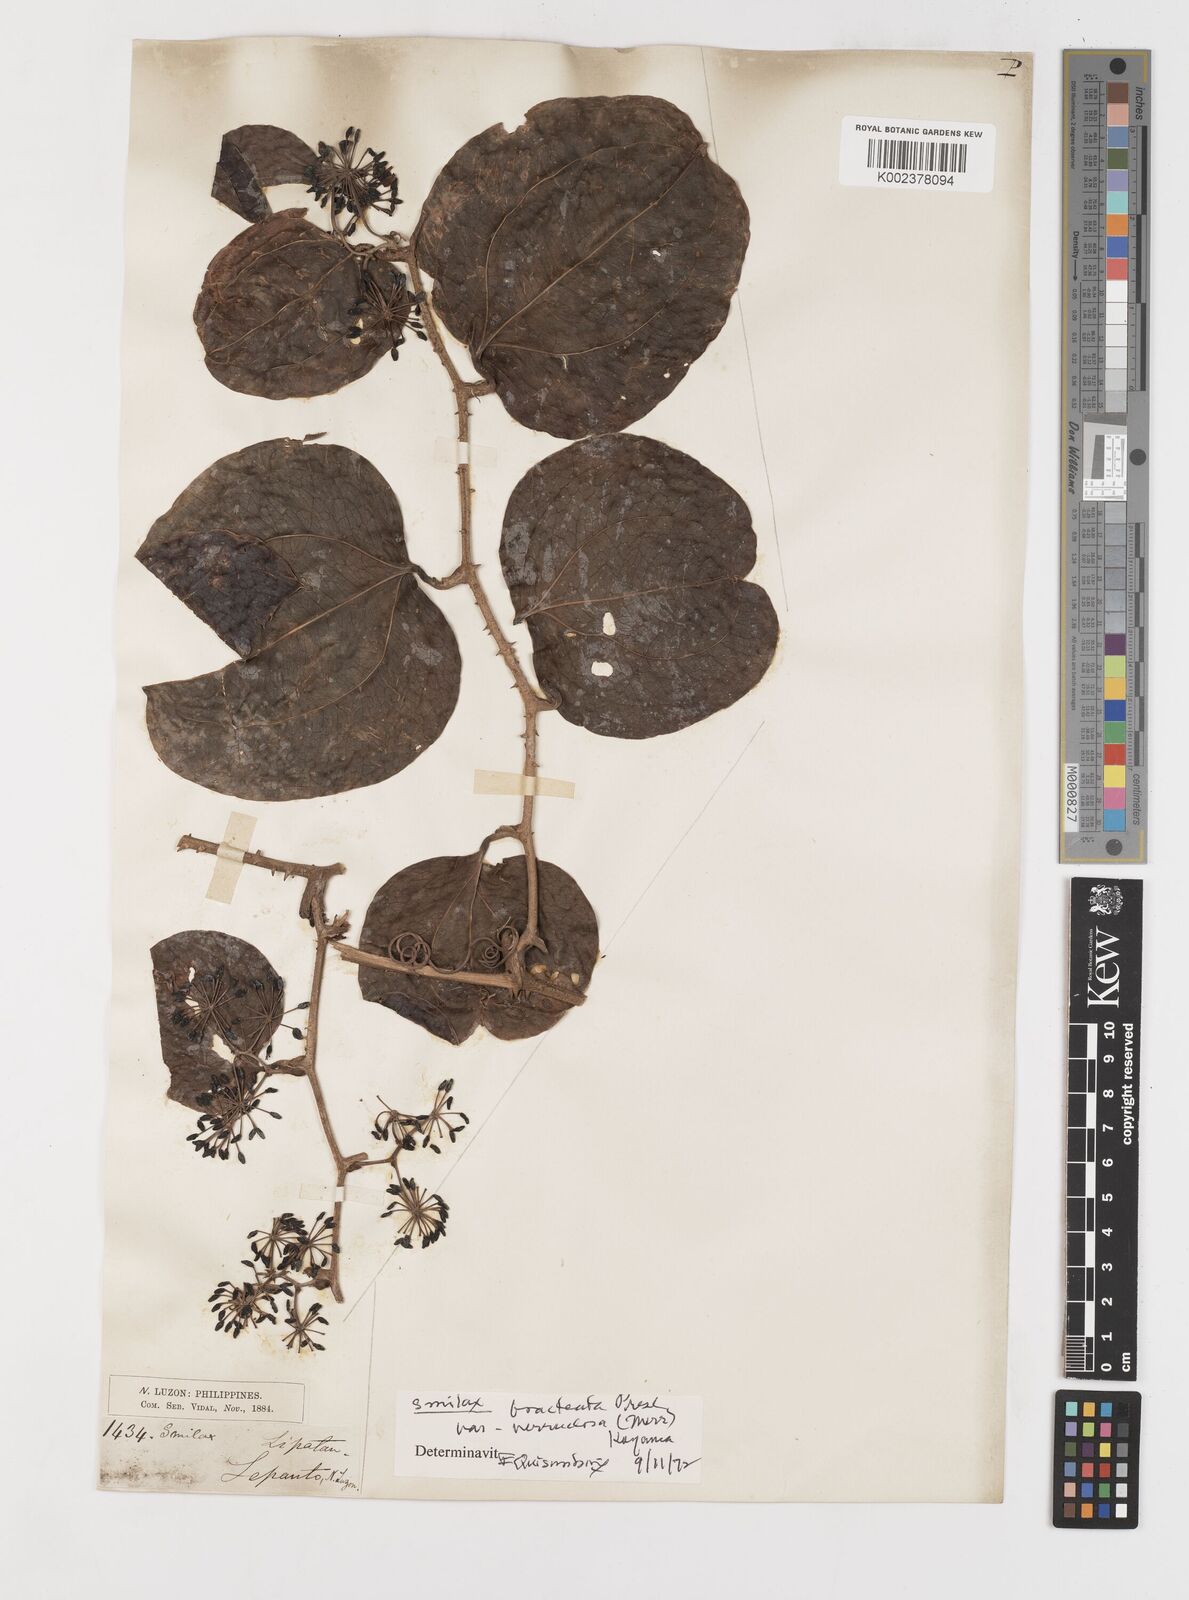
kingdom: Plantae
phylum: Tracheophyta
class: Liliopsida
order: Liliales
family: Smilacaceae
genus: Smilax
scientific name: Smilax aspericaulis
